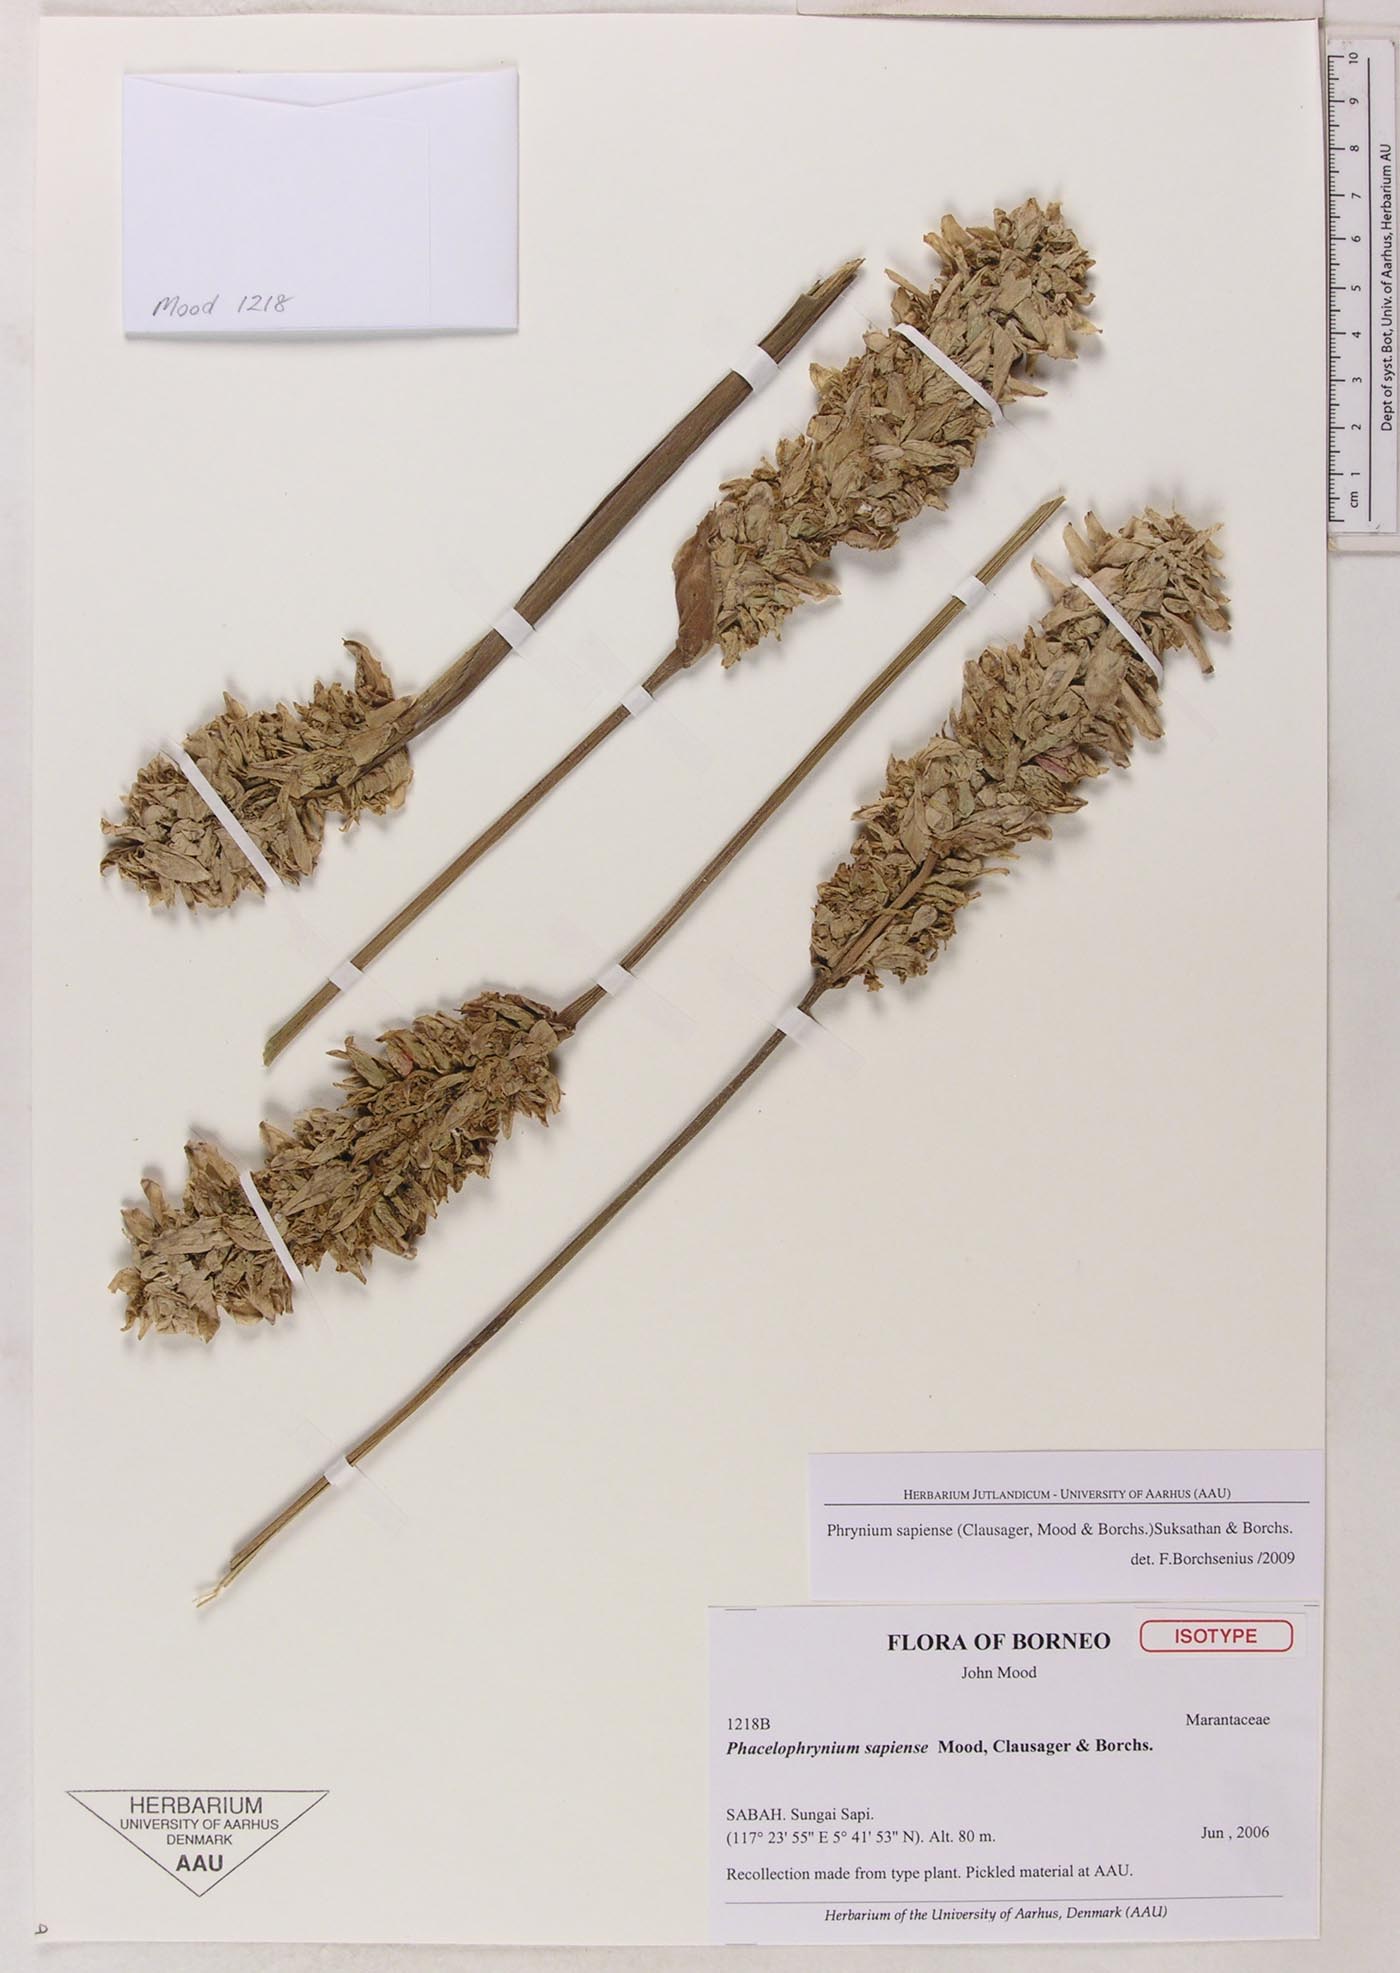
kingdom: Plantae
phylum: Tracheophyta
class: Liliopsida
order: Zingiberales
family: Marantaceae
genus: Phrynium
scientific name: Phrynium sapiense
